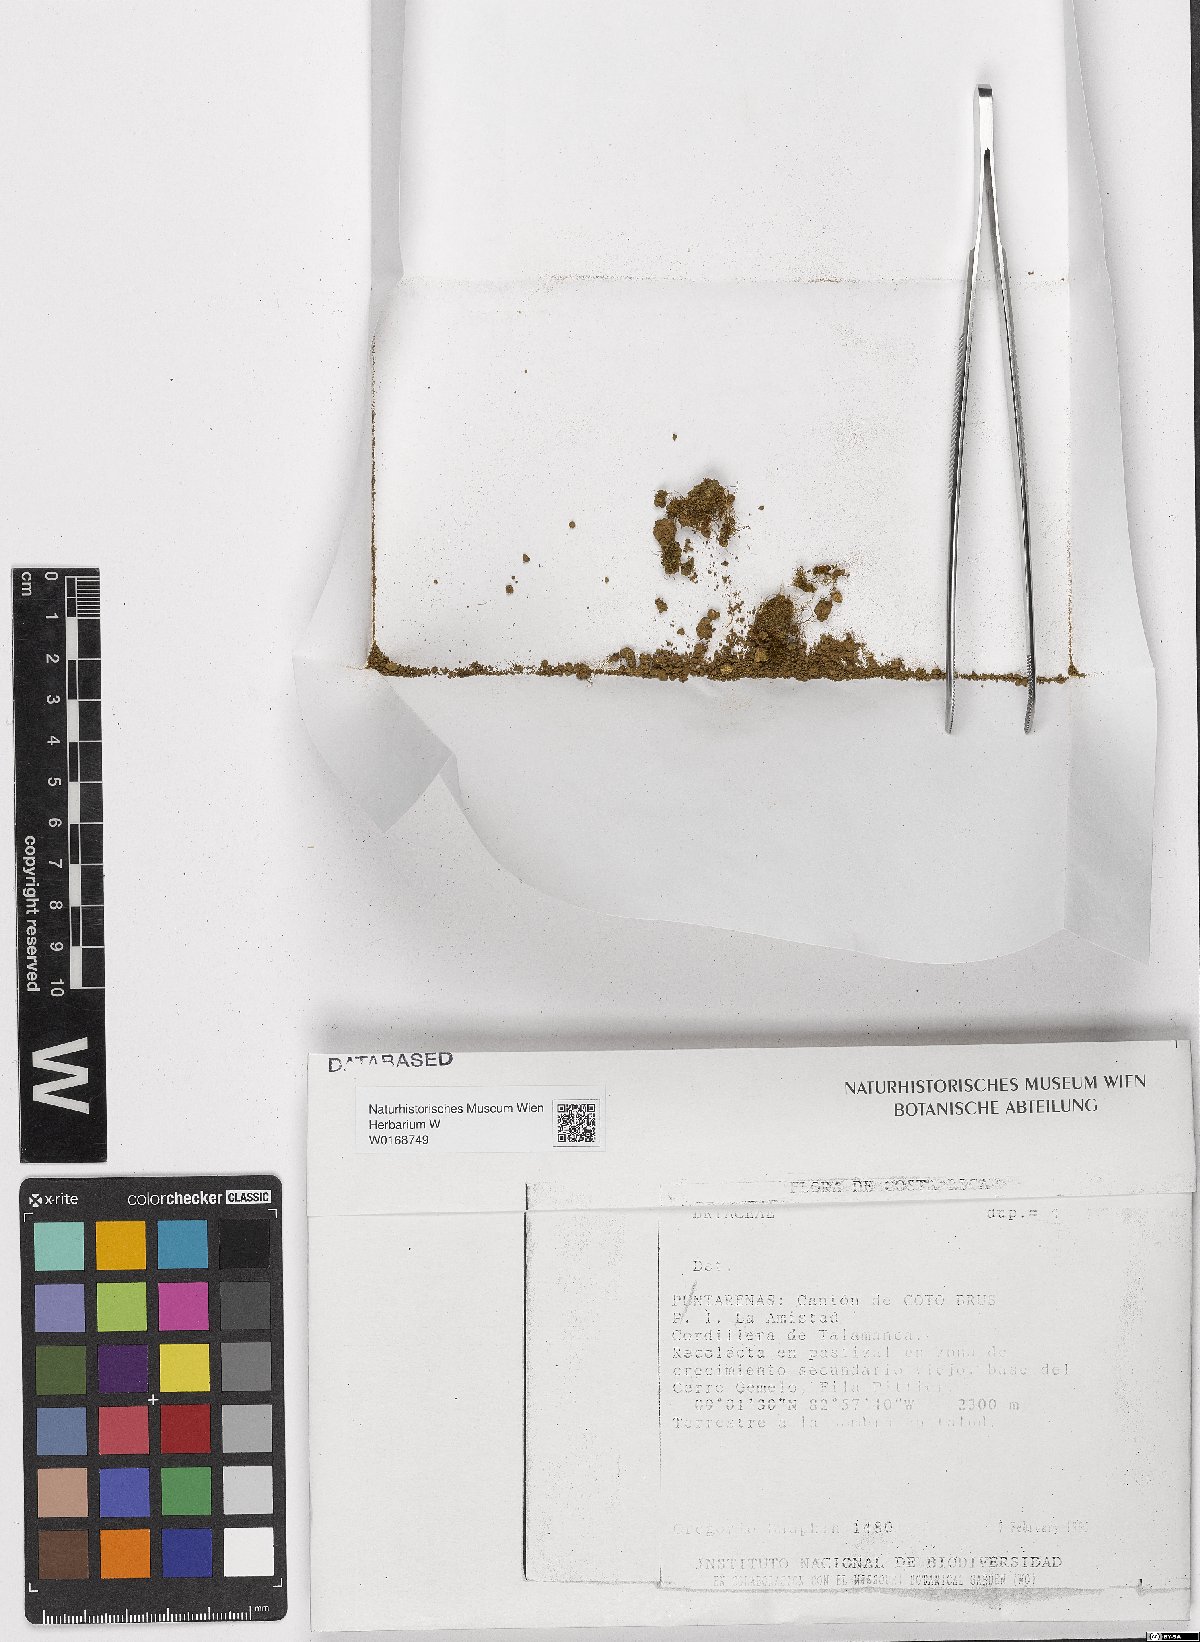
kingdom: Plantae
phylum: Bryophyta
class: Bryopsida
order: Bryales
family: Bryaceae
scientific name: Bryaceae
